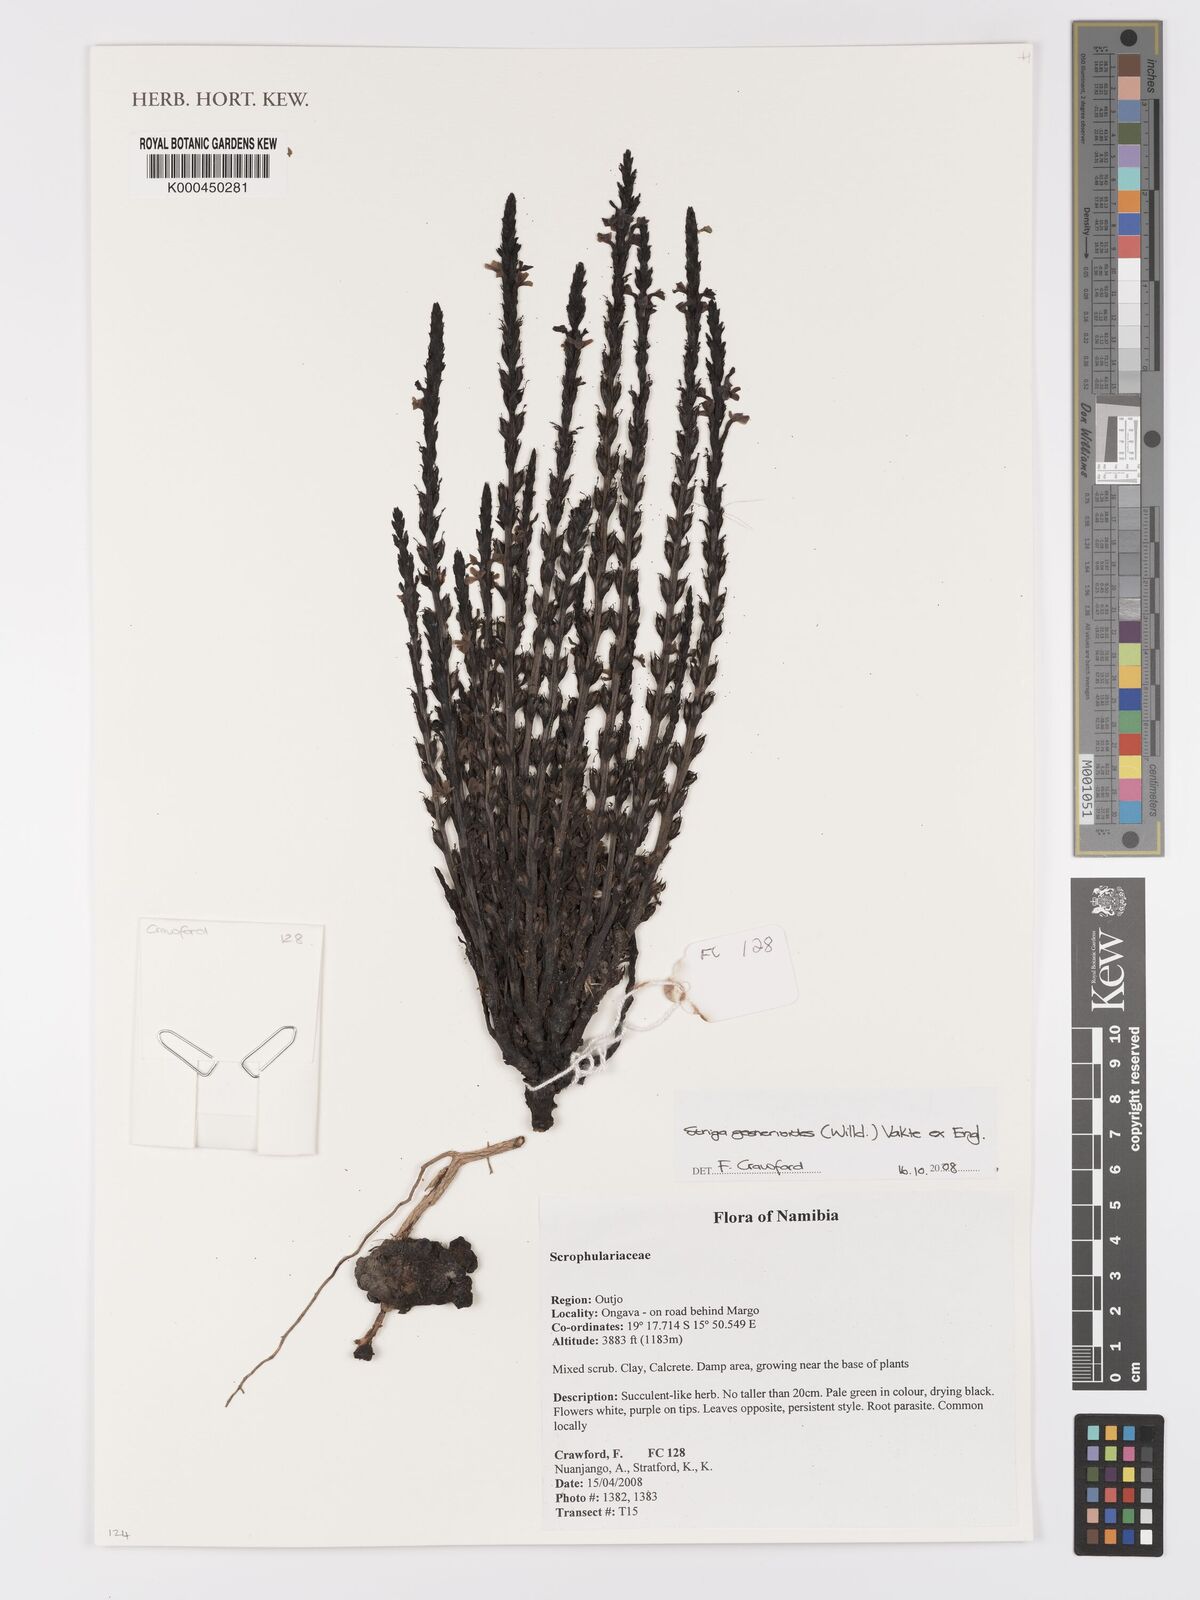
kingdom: Plantae
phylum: Tracheophyta
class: Magnoliopsida
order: Lamiales
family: Orobanchaceae
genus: Striga
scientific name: Striga
